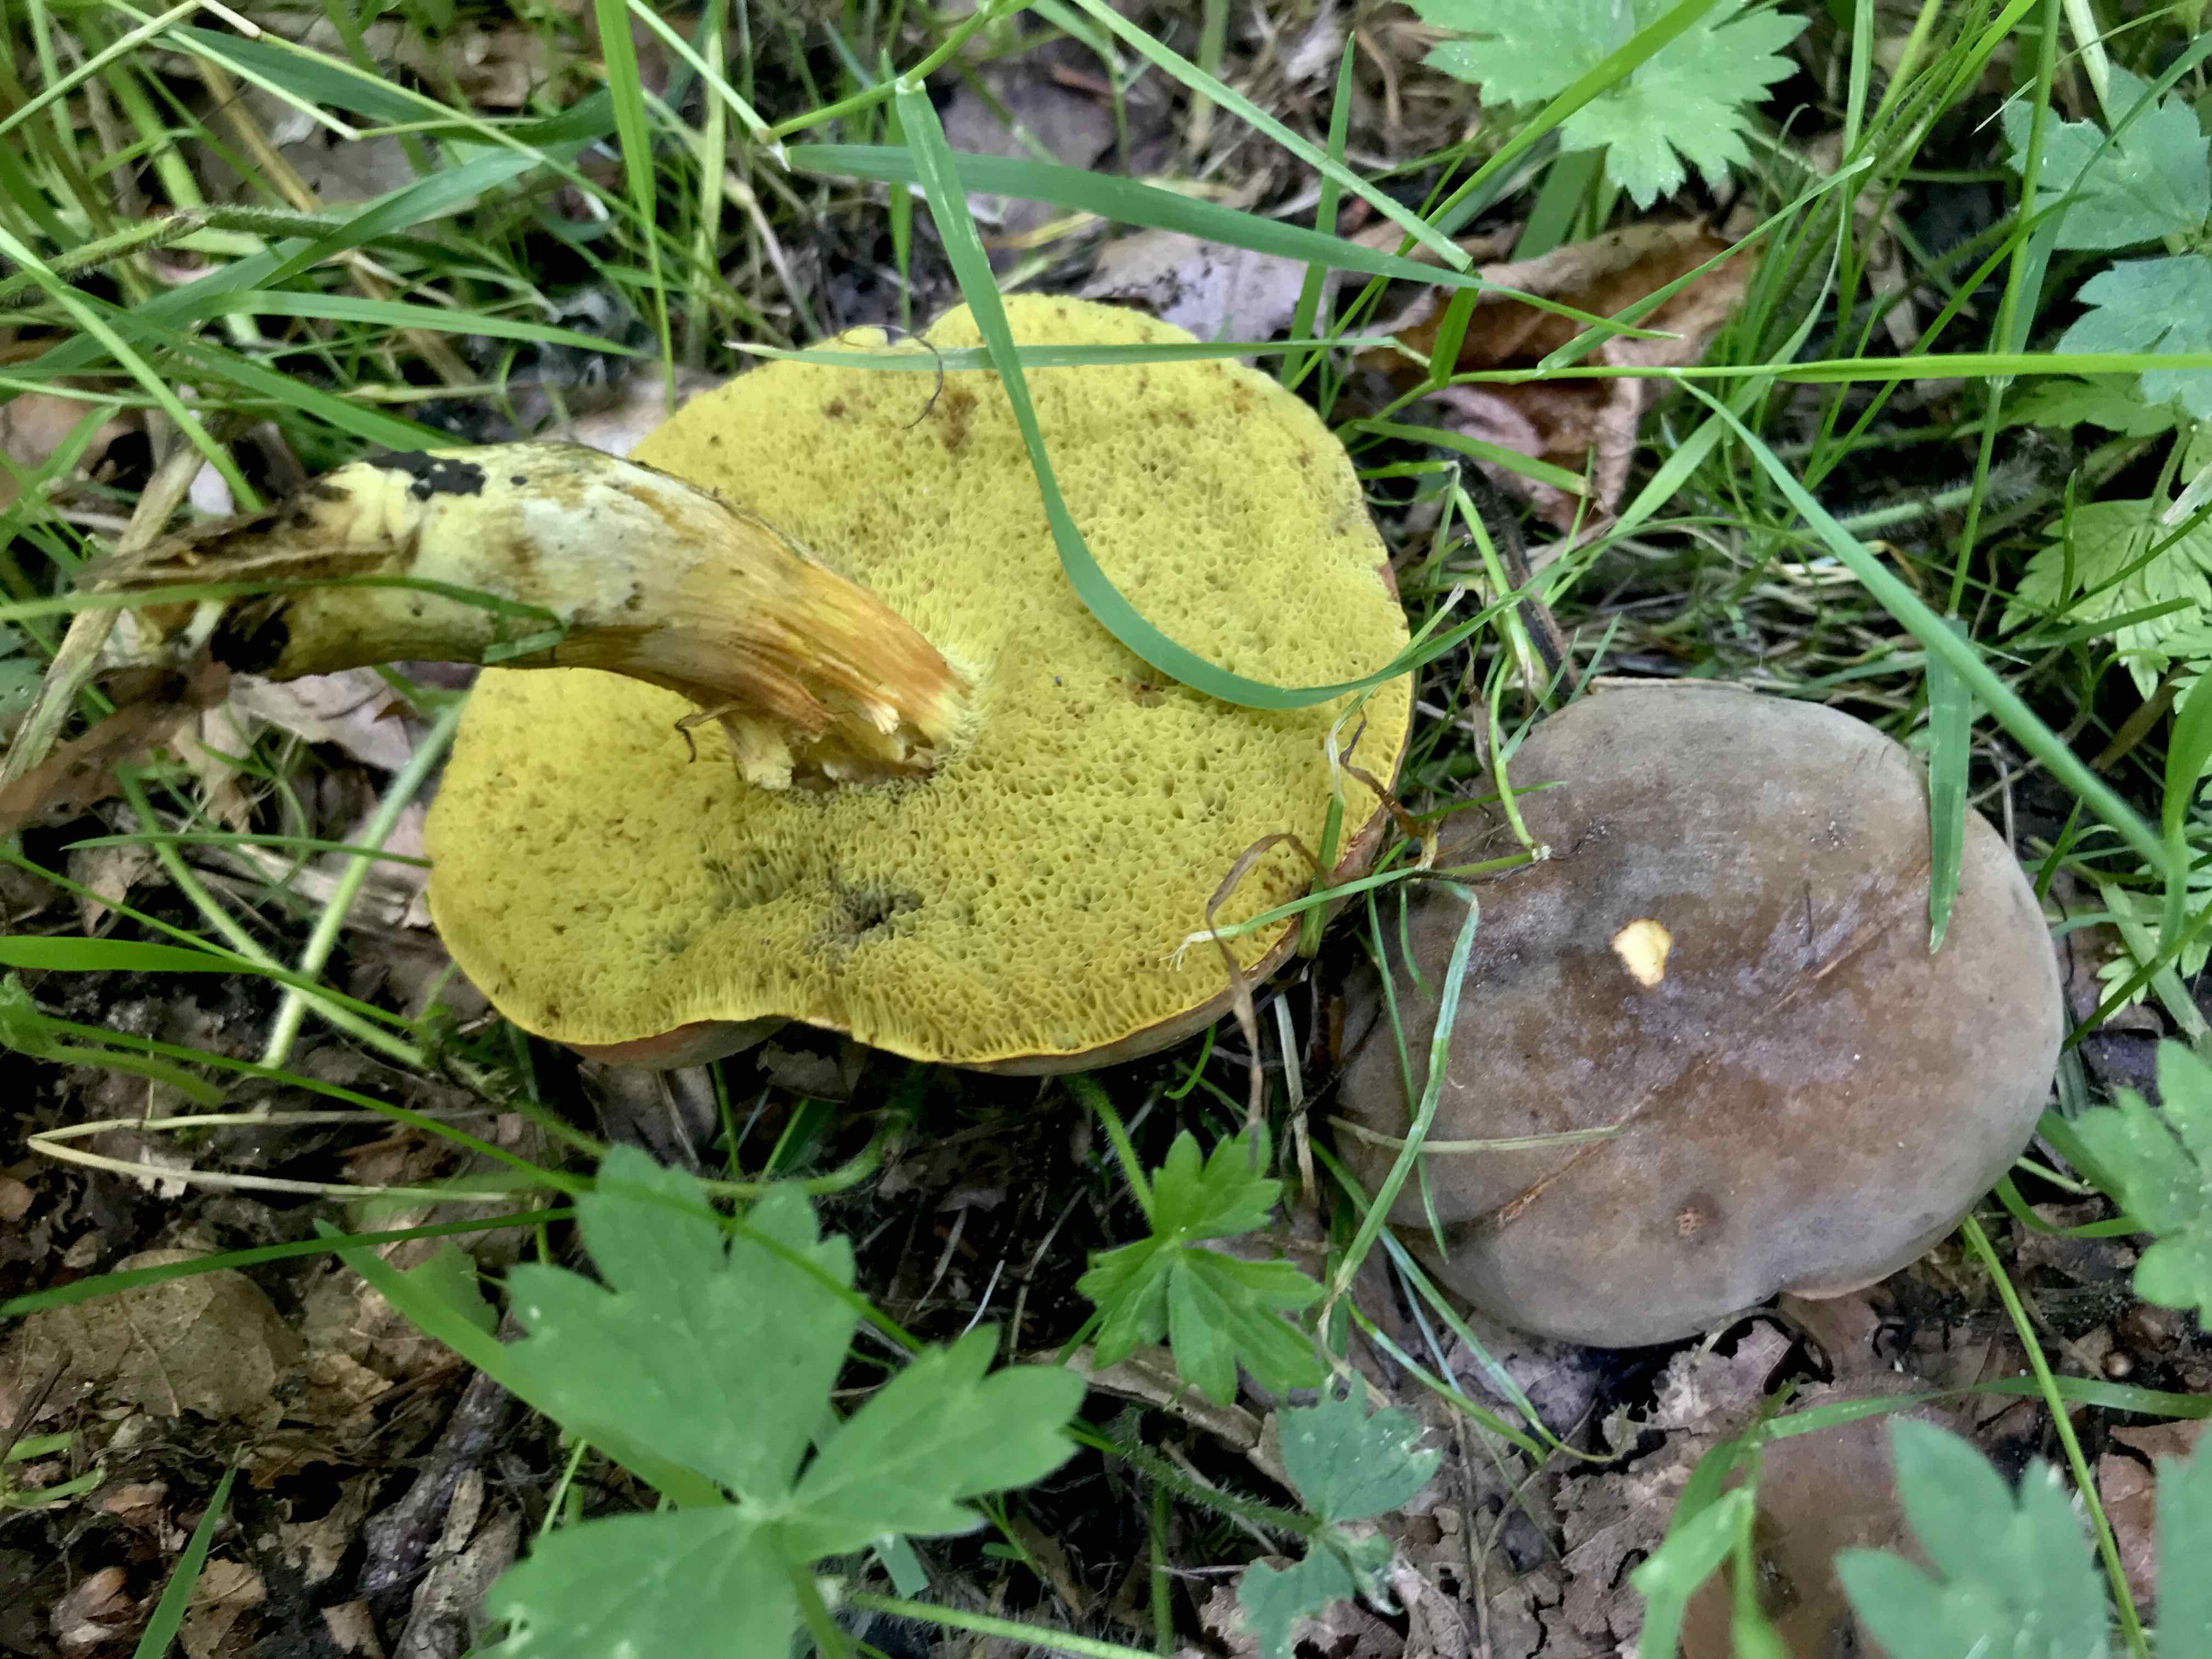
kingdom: Fungi
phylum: Basidiomycota
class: Agaricomycetes
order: Boletales
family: Boletaceae
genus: Hortiboletus
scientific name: Hortiboletus engelii
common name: fersken-rørhat
